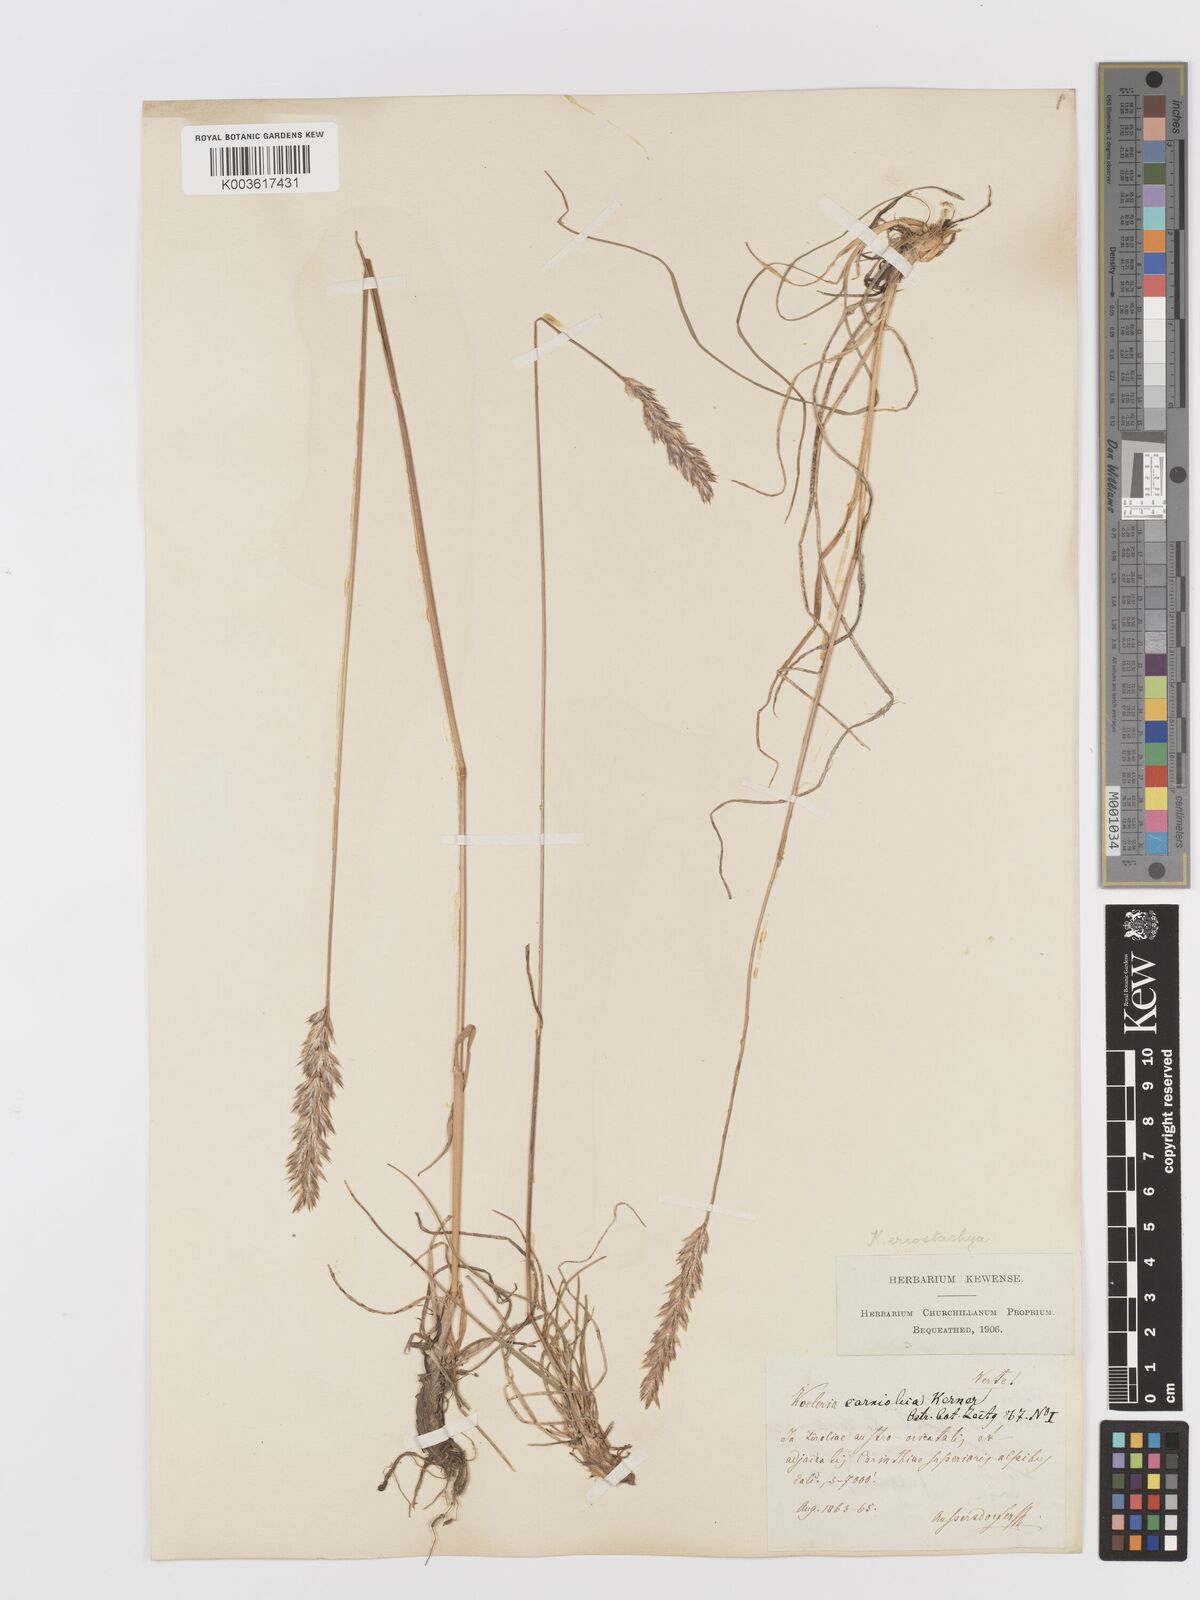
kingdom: Plantae
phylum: Tracheophyta
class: Liliopsida
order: Poales
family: Poaceae
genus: Koeleria
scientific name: Koeleria eriostachya
